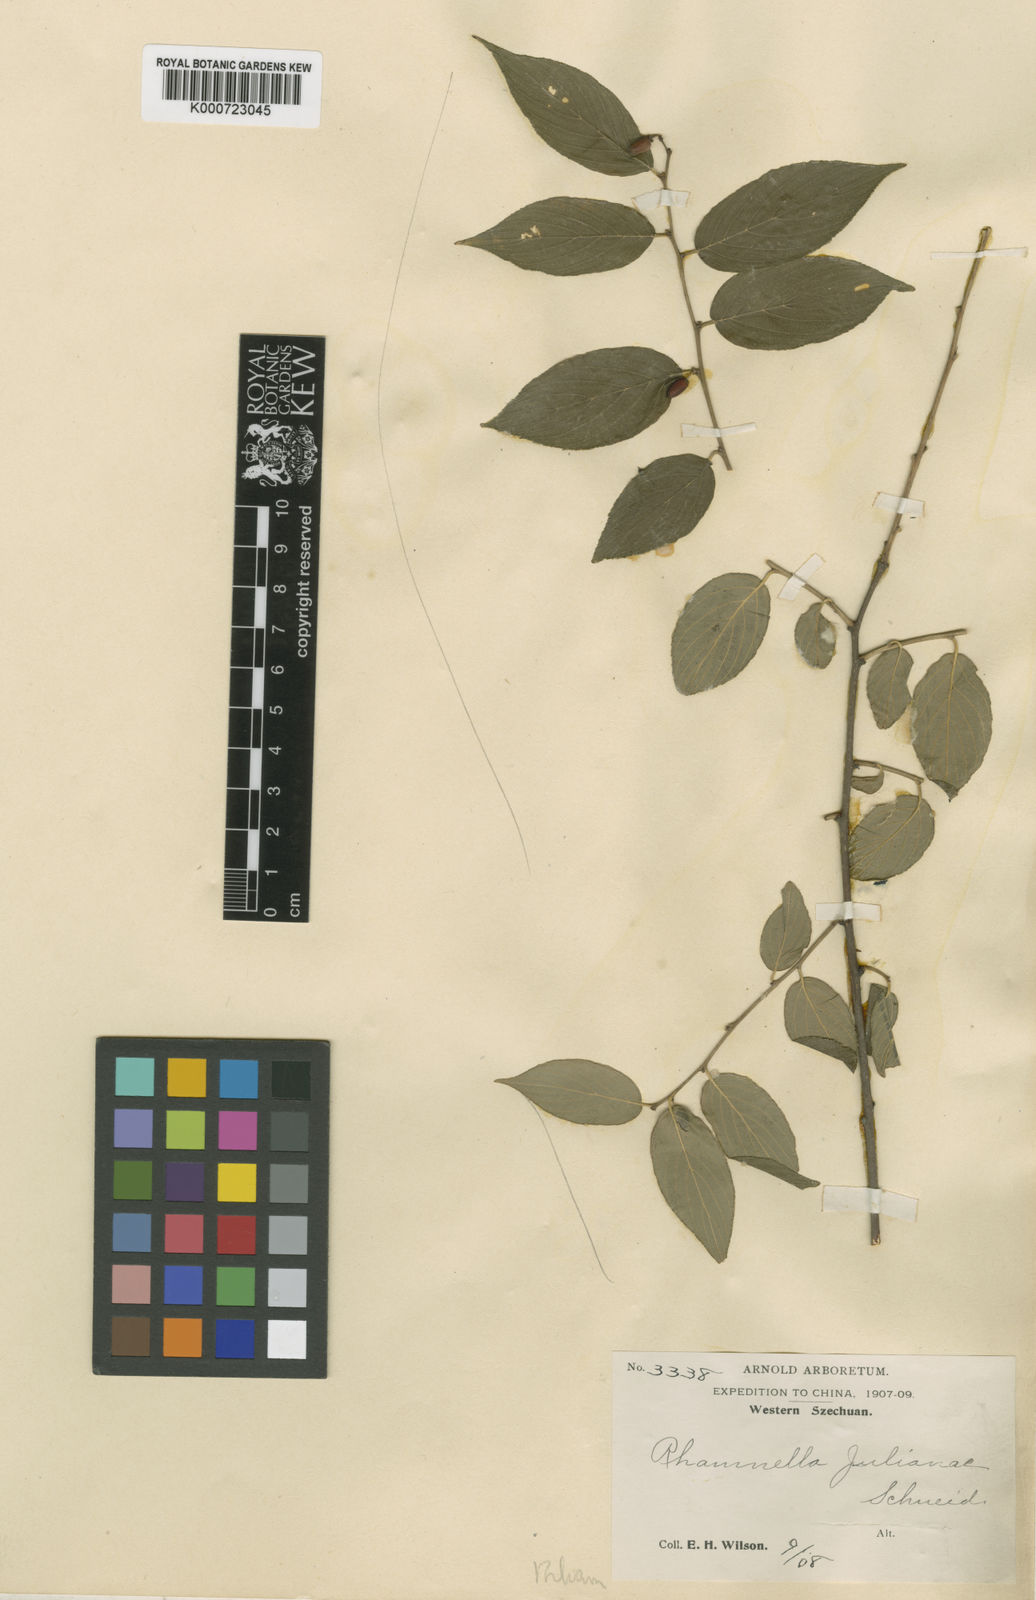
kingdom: Plantae
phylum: Tracheophyta
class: Magnoliopsida
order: Rosales
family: Rhamnaceae
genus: Rhamnella
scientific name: Rhamnella julianae
